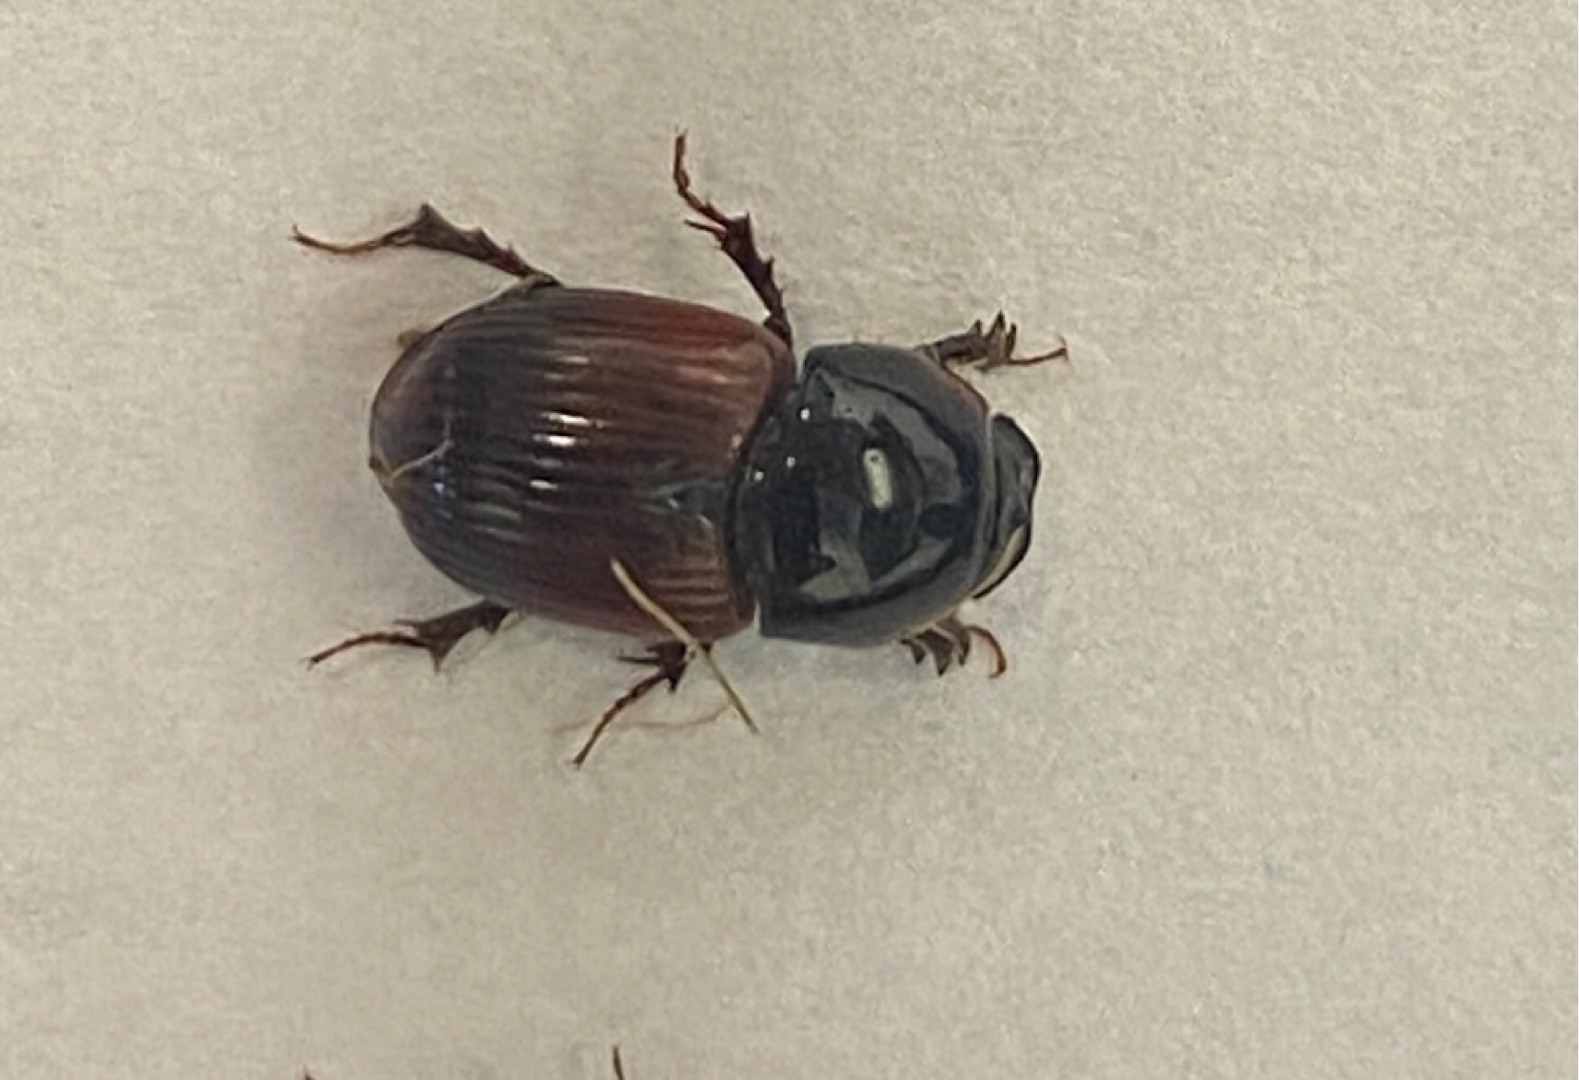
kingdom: Animalia
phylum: Arthropoda
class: Insecta
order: Coleoptera
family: Scarabaeidae
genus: Rhodaphodius
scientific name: Rhodaphodius foetens
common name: Rødbuget møgbille
